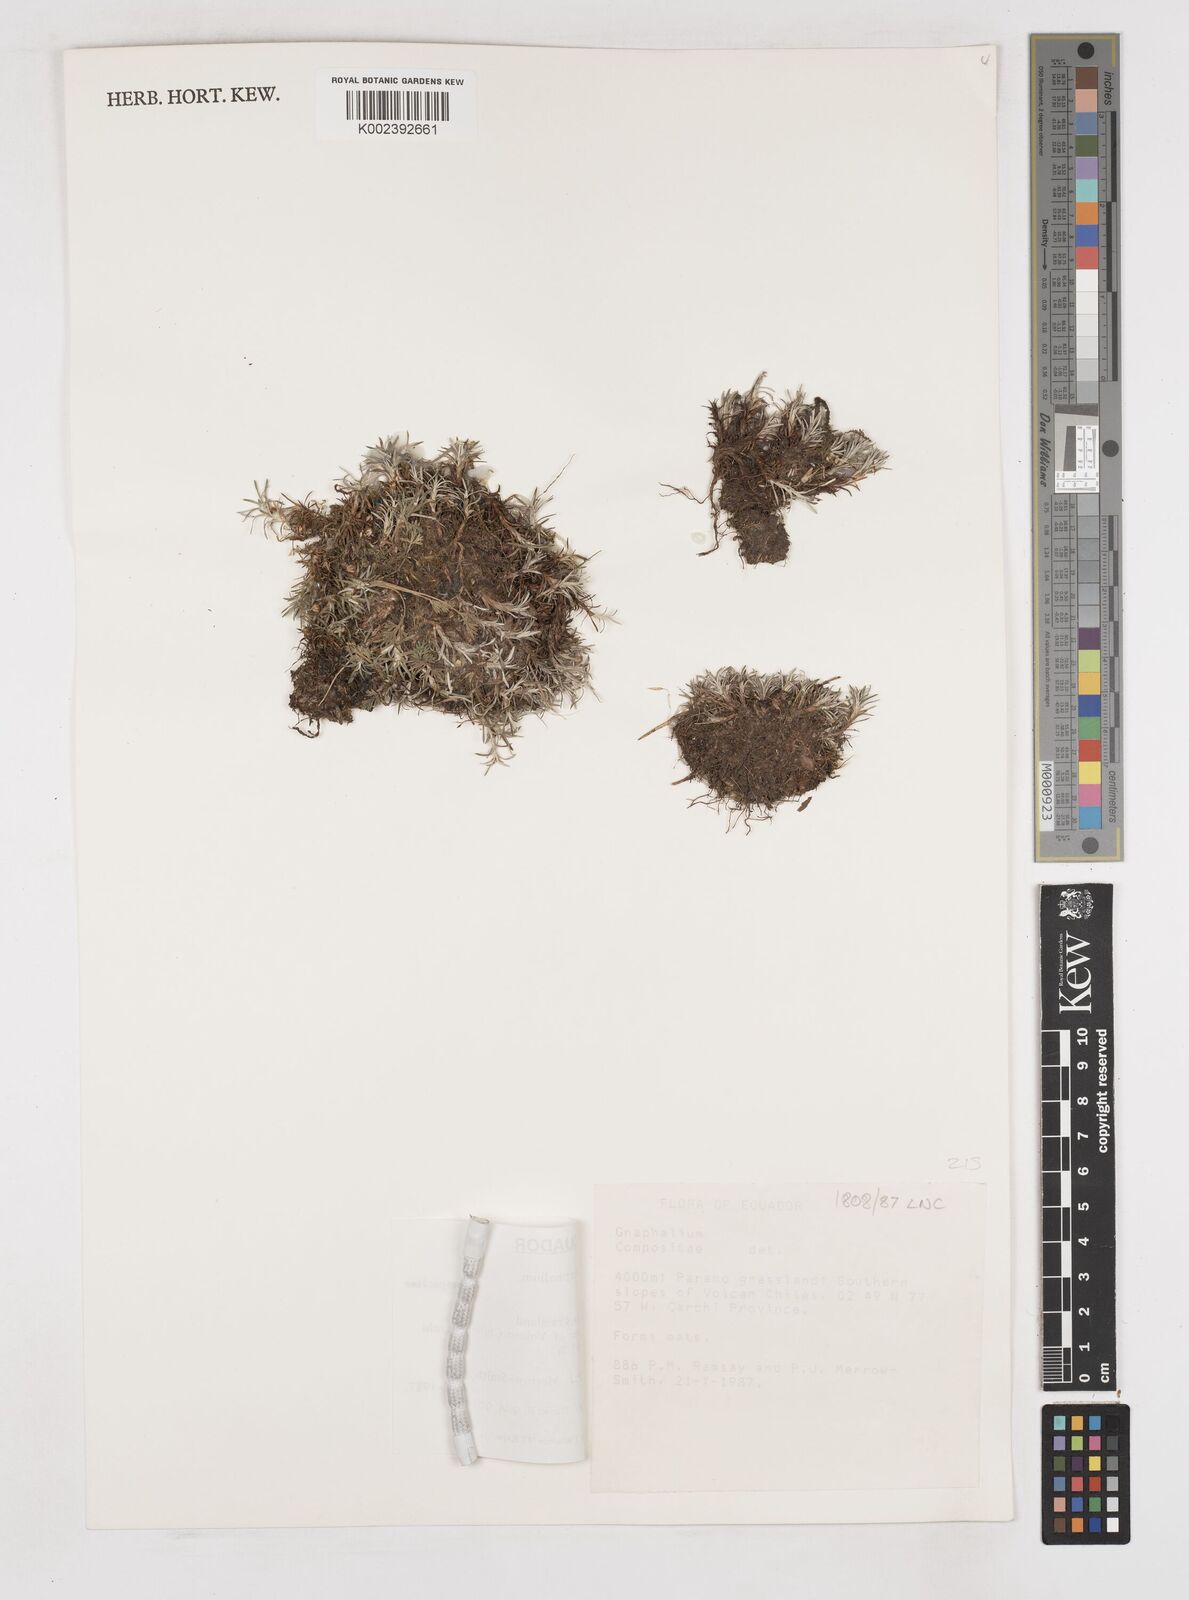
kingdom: Plantae
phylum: Tracheophyta
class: Magnoliopsida
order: Asterales
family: Asteraceae
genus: Gnaphalium
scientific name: Gnaphalium
